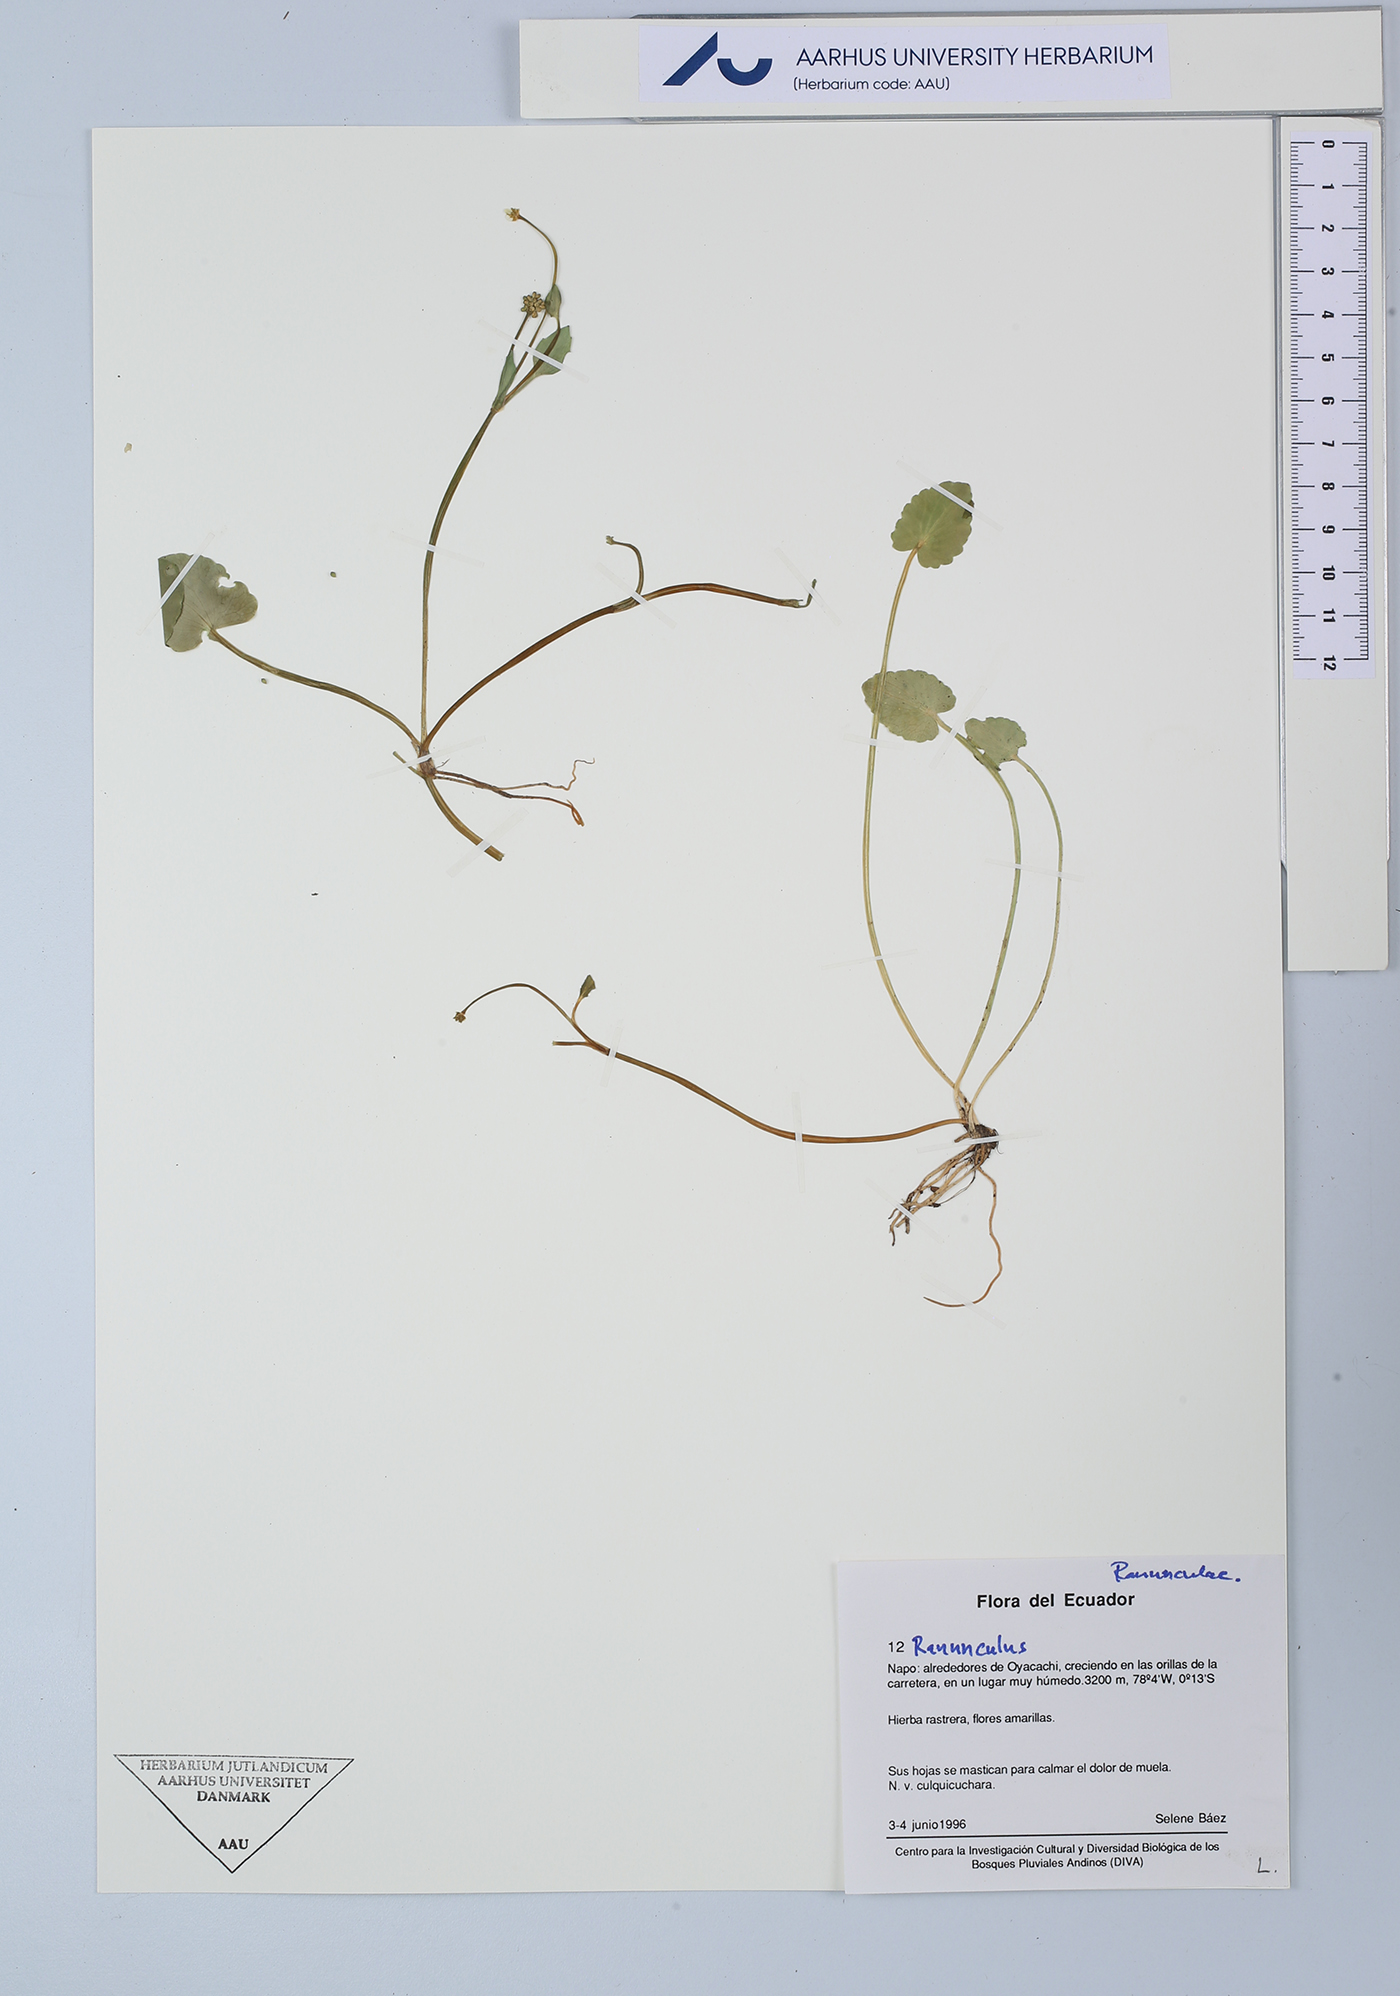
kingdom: Plantae
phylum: Tracheophyta
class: Magnoliopsida
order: Ranunculales
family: Ranunculaceae
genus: Ranunculus
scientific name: Ranunculus
